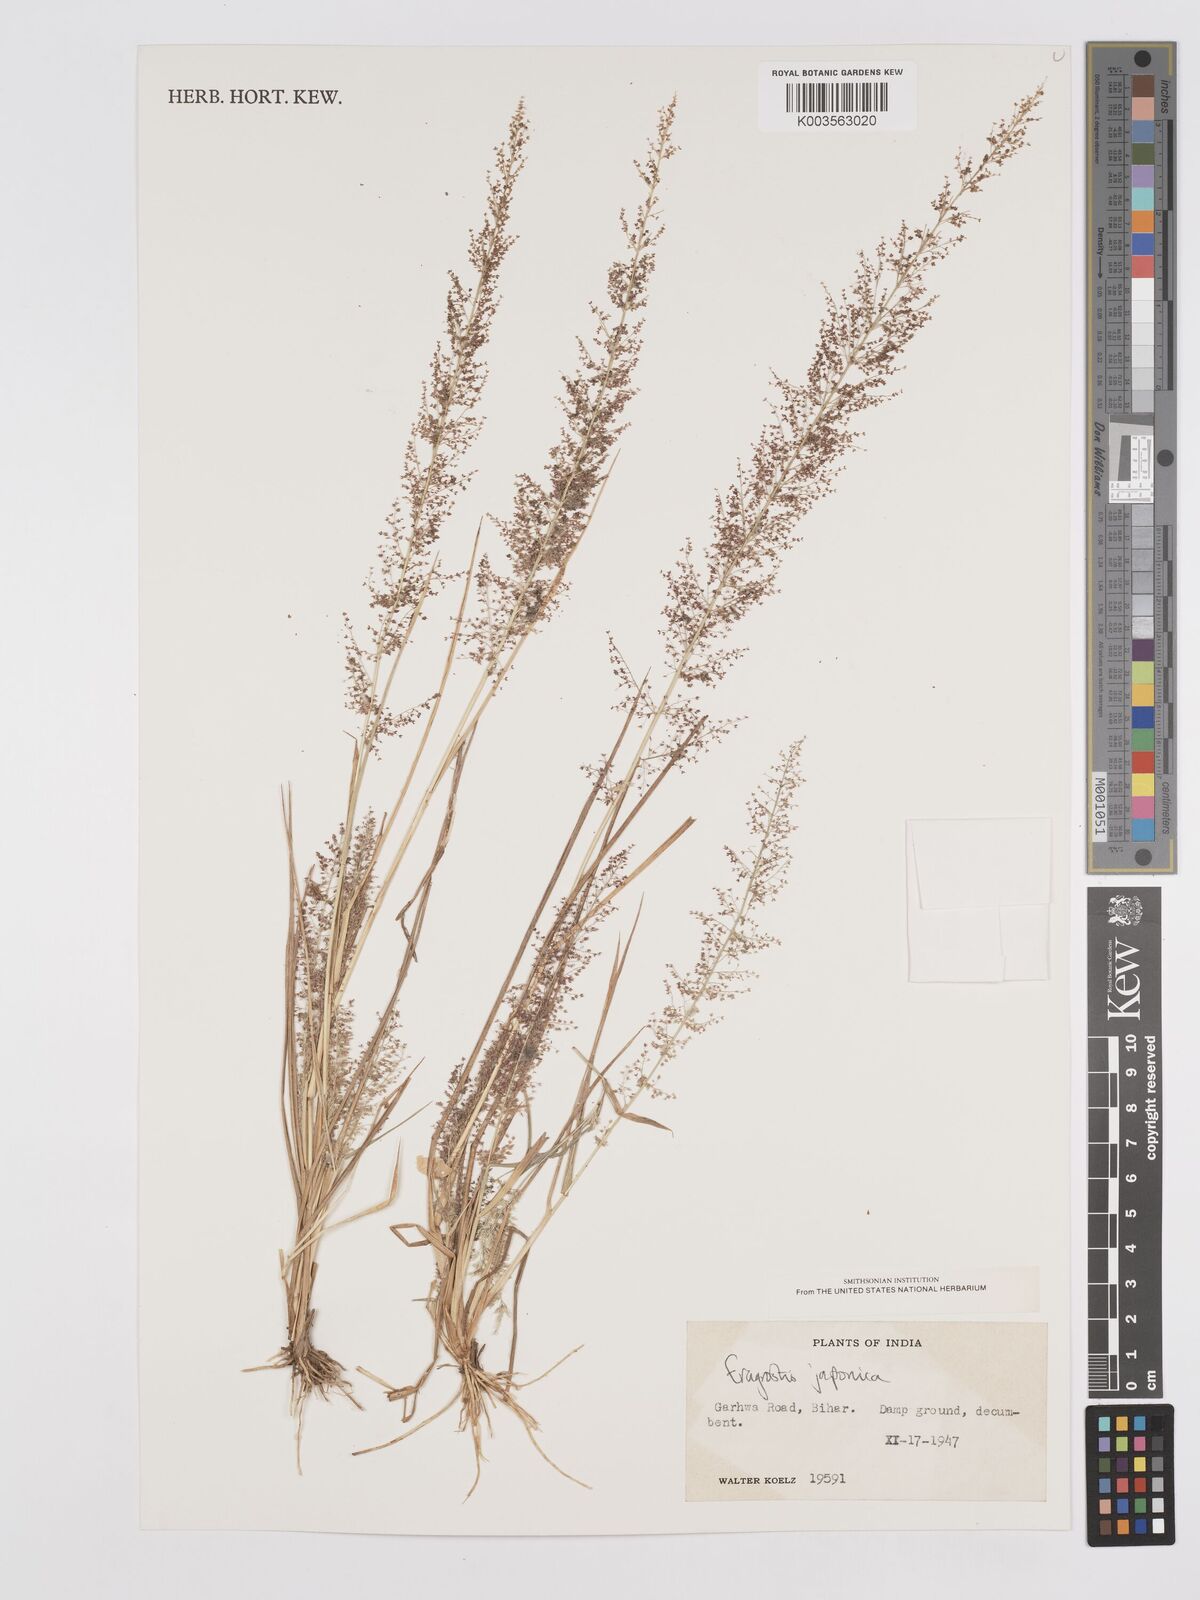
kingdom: Plantae
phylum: Tracheophyta
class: Liliopsida
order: Poales
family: Poaceae
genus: Eragrostis
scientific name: Eragrostis japonica
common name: Pond lovegrass
